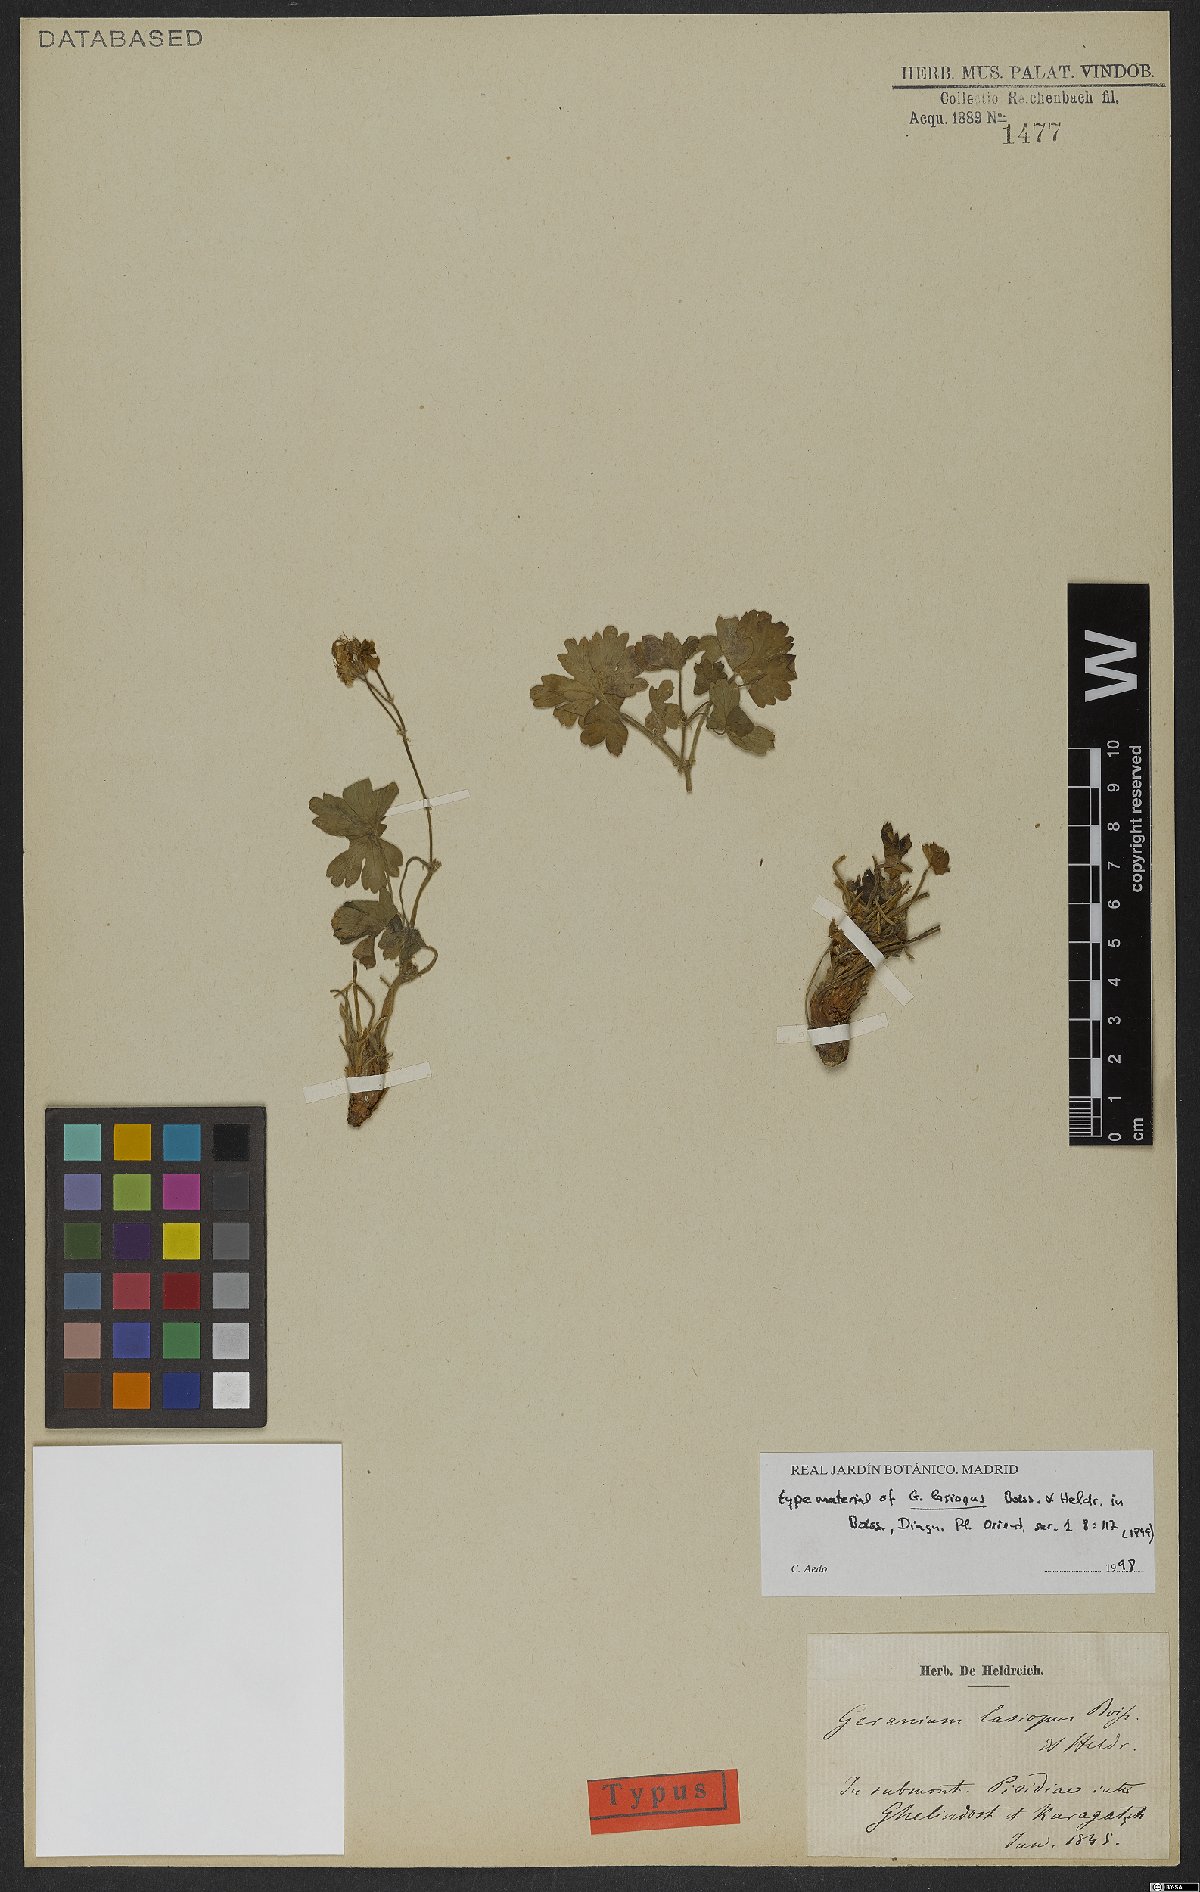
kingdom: Plantae
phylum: Tracheophyta
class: Magnoliopsida
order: Geraniales
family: Geraniaceae
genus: Geranium
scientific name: Geranium lasiopus
